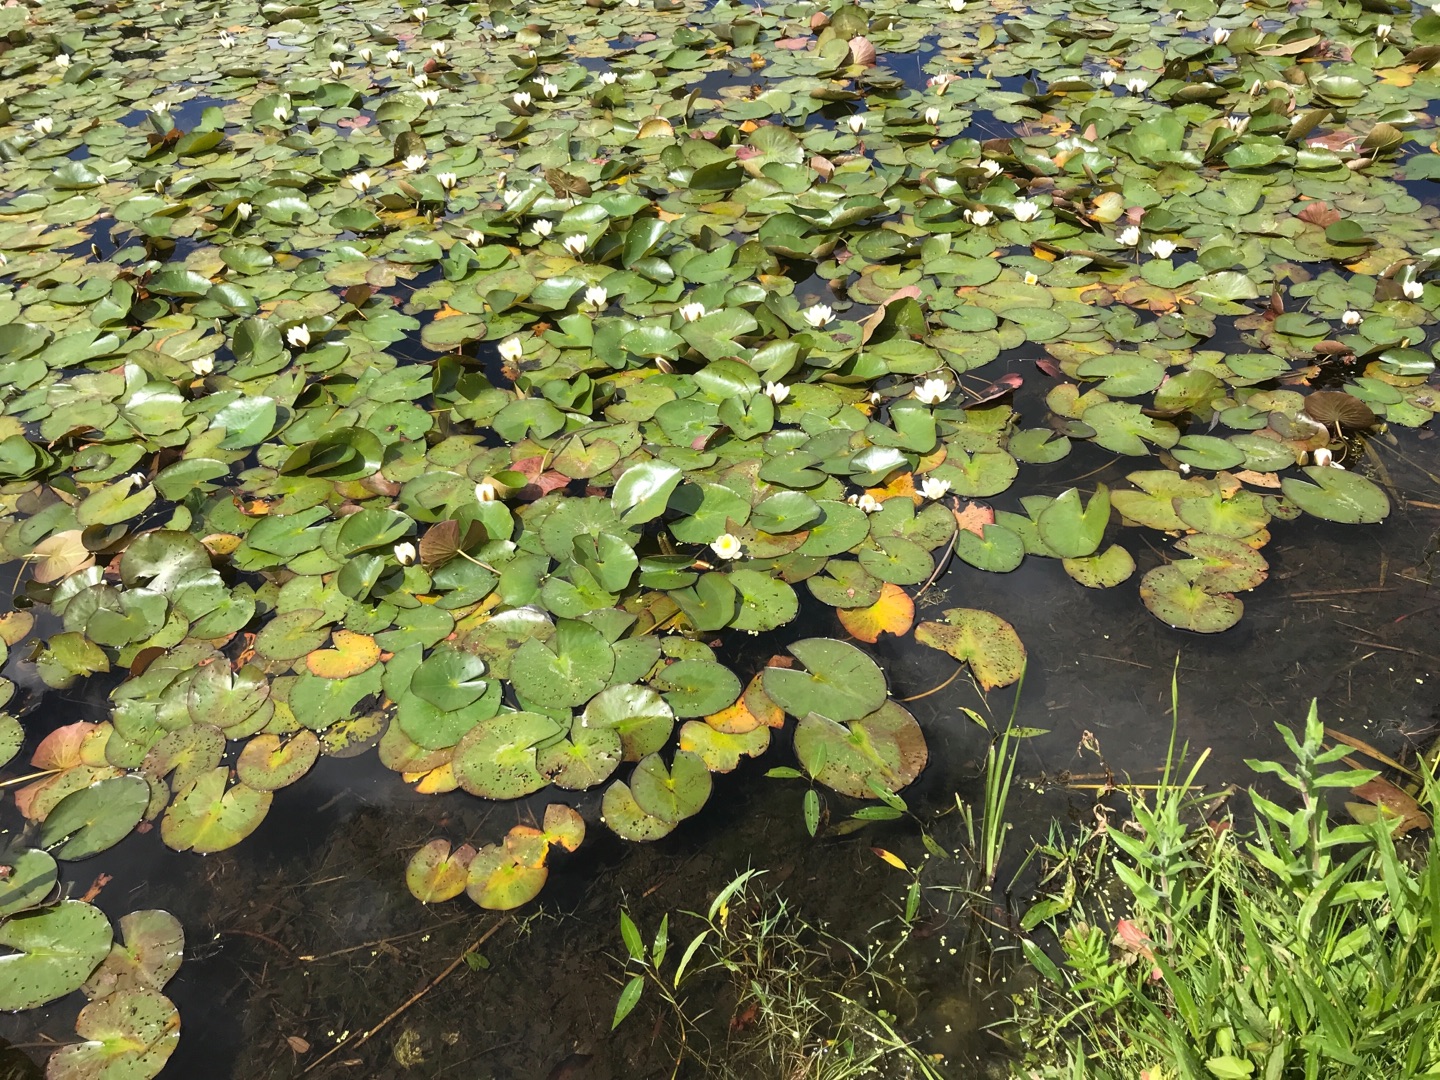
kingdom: Plantae
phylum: Tracheophyta
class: Magnoliopsida
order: Nymphaeales
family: Nymphaeaceae
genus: Nymphaea
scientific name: Nymphaea alba
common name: Hvid åkande
